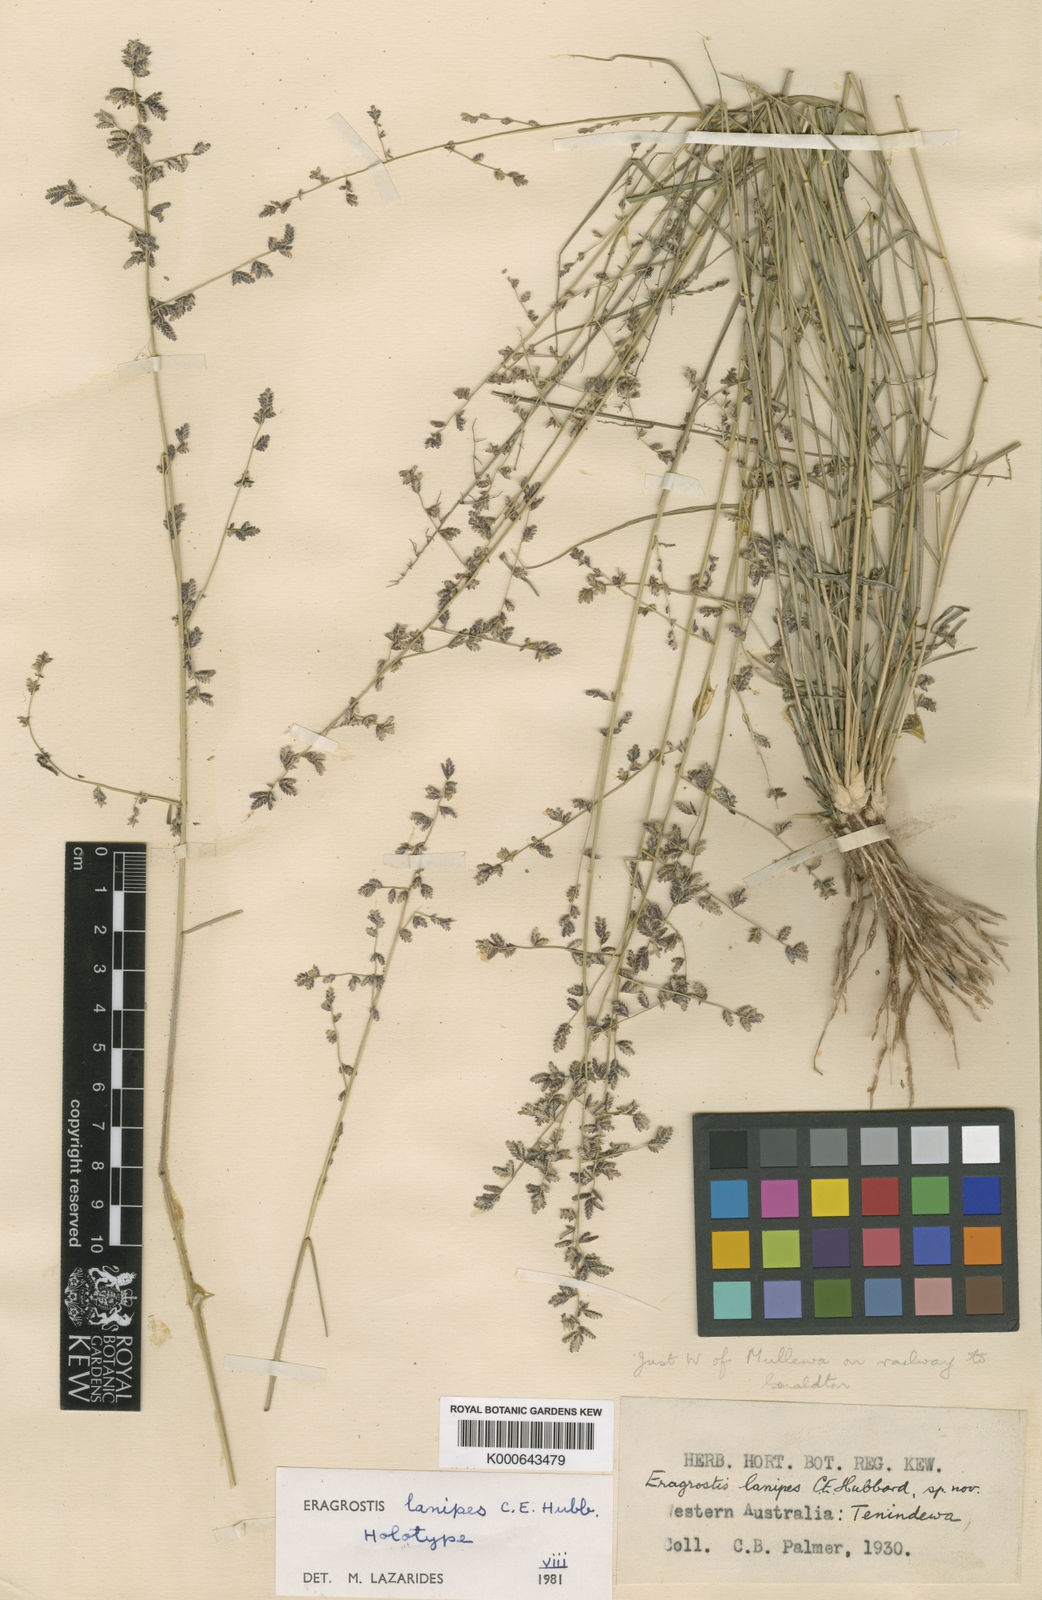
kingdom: Plantae
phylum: Tracheophyta
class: Liliopsida
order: Poales
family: Poaceae
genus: Eragrostis
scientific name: Eragrostis lanipes
